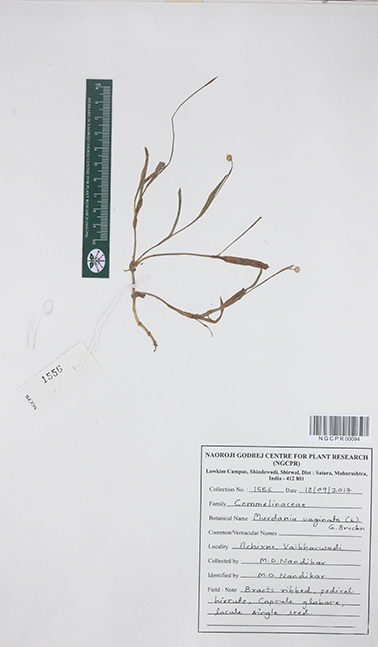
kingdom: Plantae
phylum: Tracheophyta
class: Liliopsida
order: Commelinales
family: Commelinaceae
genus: Murdannia
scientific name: Murdannia vaginata
